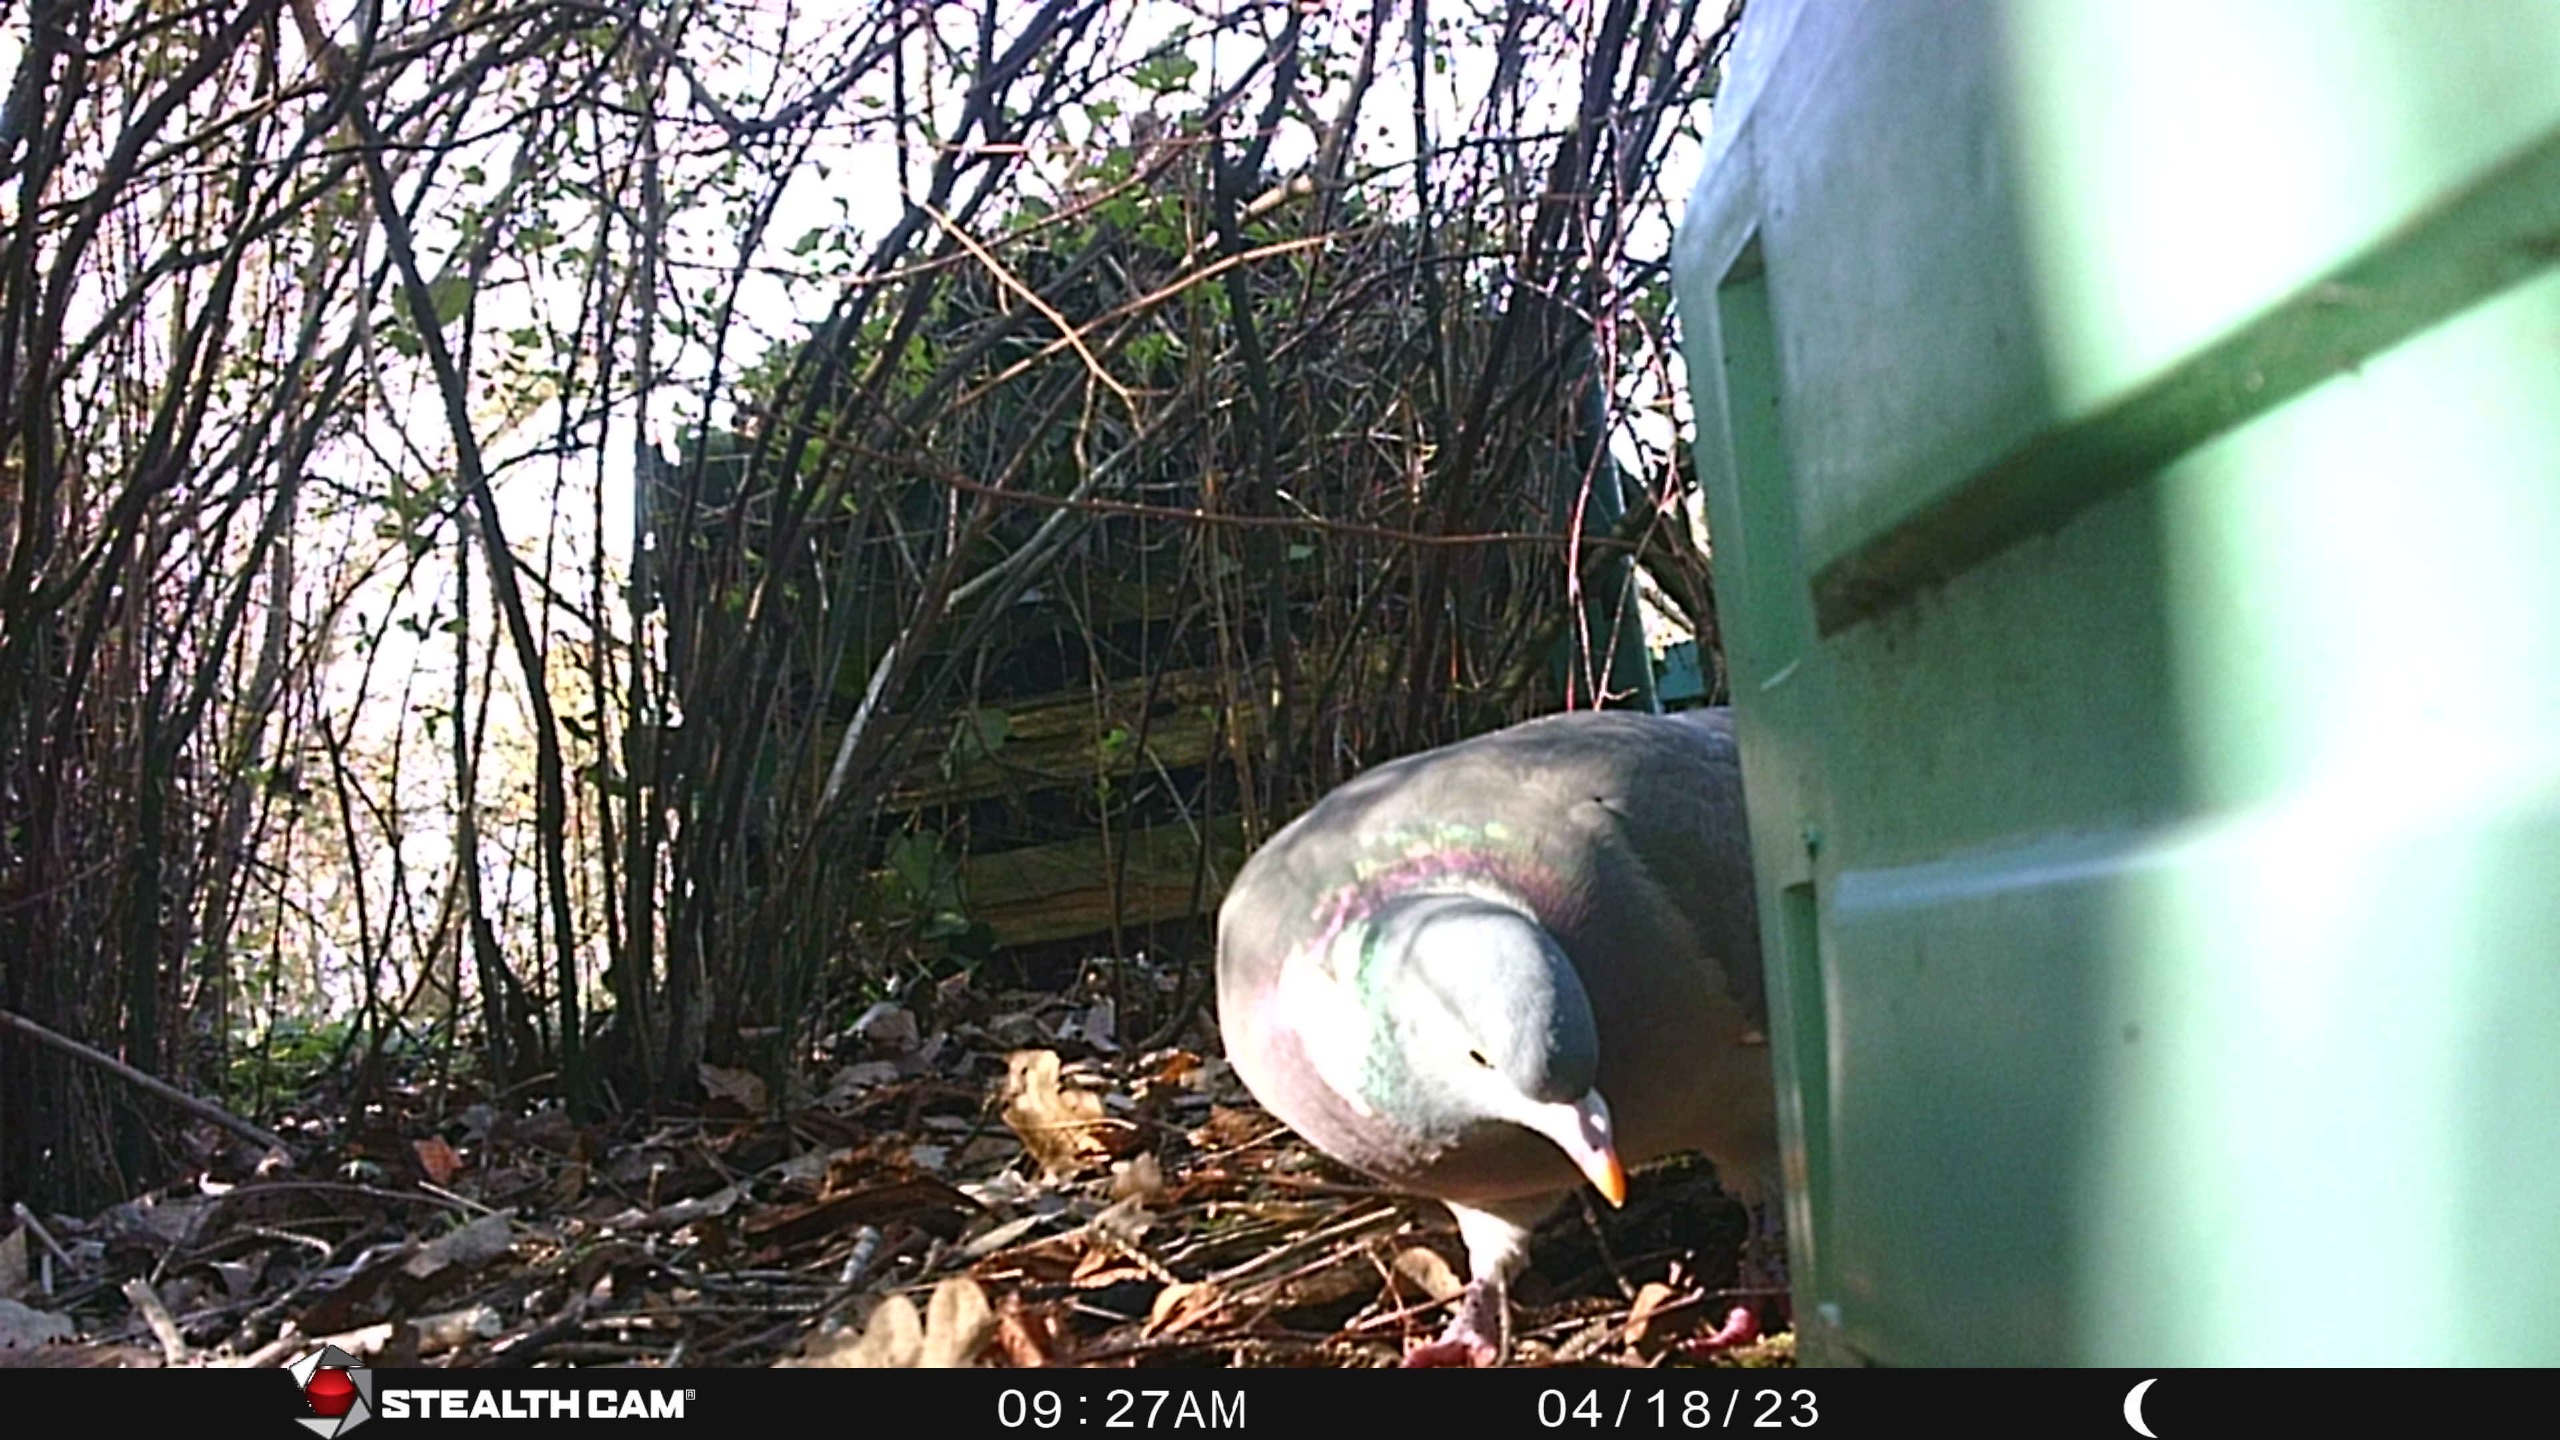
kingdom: Animalia
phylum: Chordata
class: Aves
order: Columbiformes
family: Columbidae
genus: Columba
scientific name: Columba palumbus
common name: Ringdue
